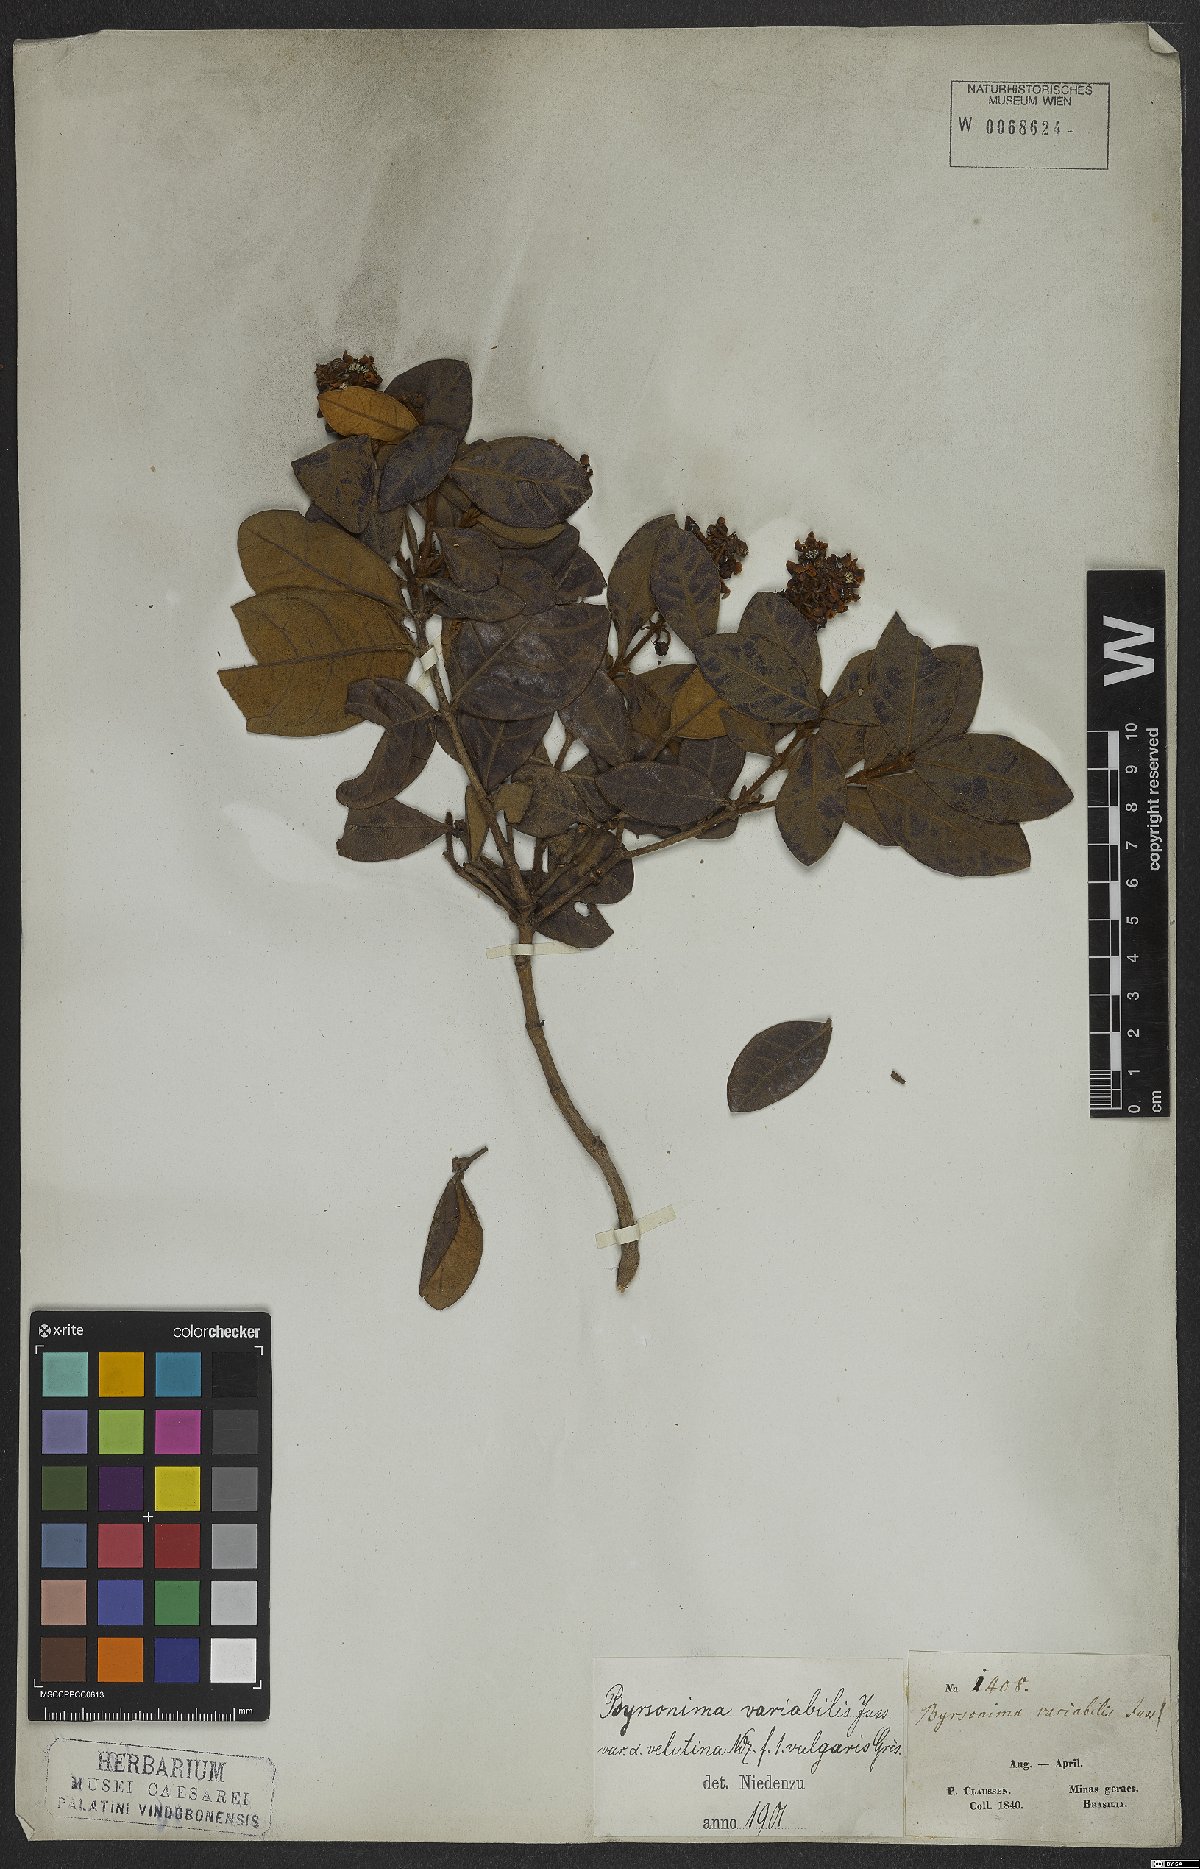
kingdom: Plantae
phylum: Tracheophyta
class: Magnoliopsida
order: Malpighiales
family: Malpighiaceae
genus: Byrsonima
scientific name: Byrsonima variabilis
